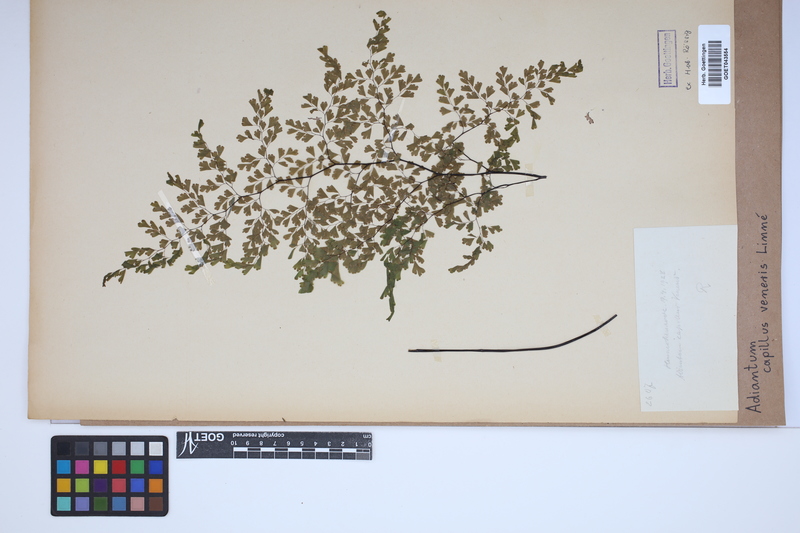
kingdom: Plantae
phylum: Tracheophyta
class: Polypodiopsida
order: Polypodiales
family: Pteridaceae
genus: Adiantum
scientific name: Adiantum capillus-veneris
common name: Maidenhair fern
